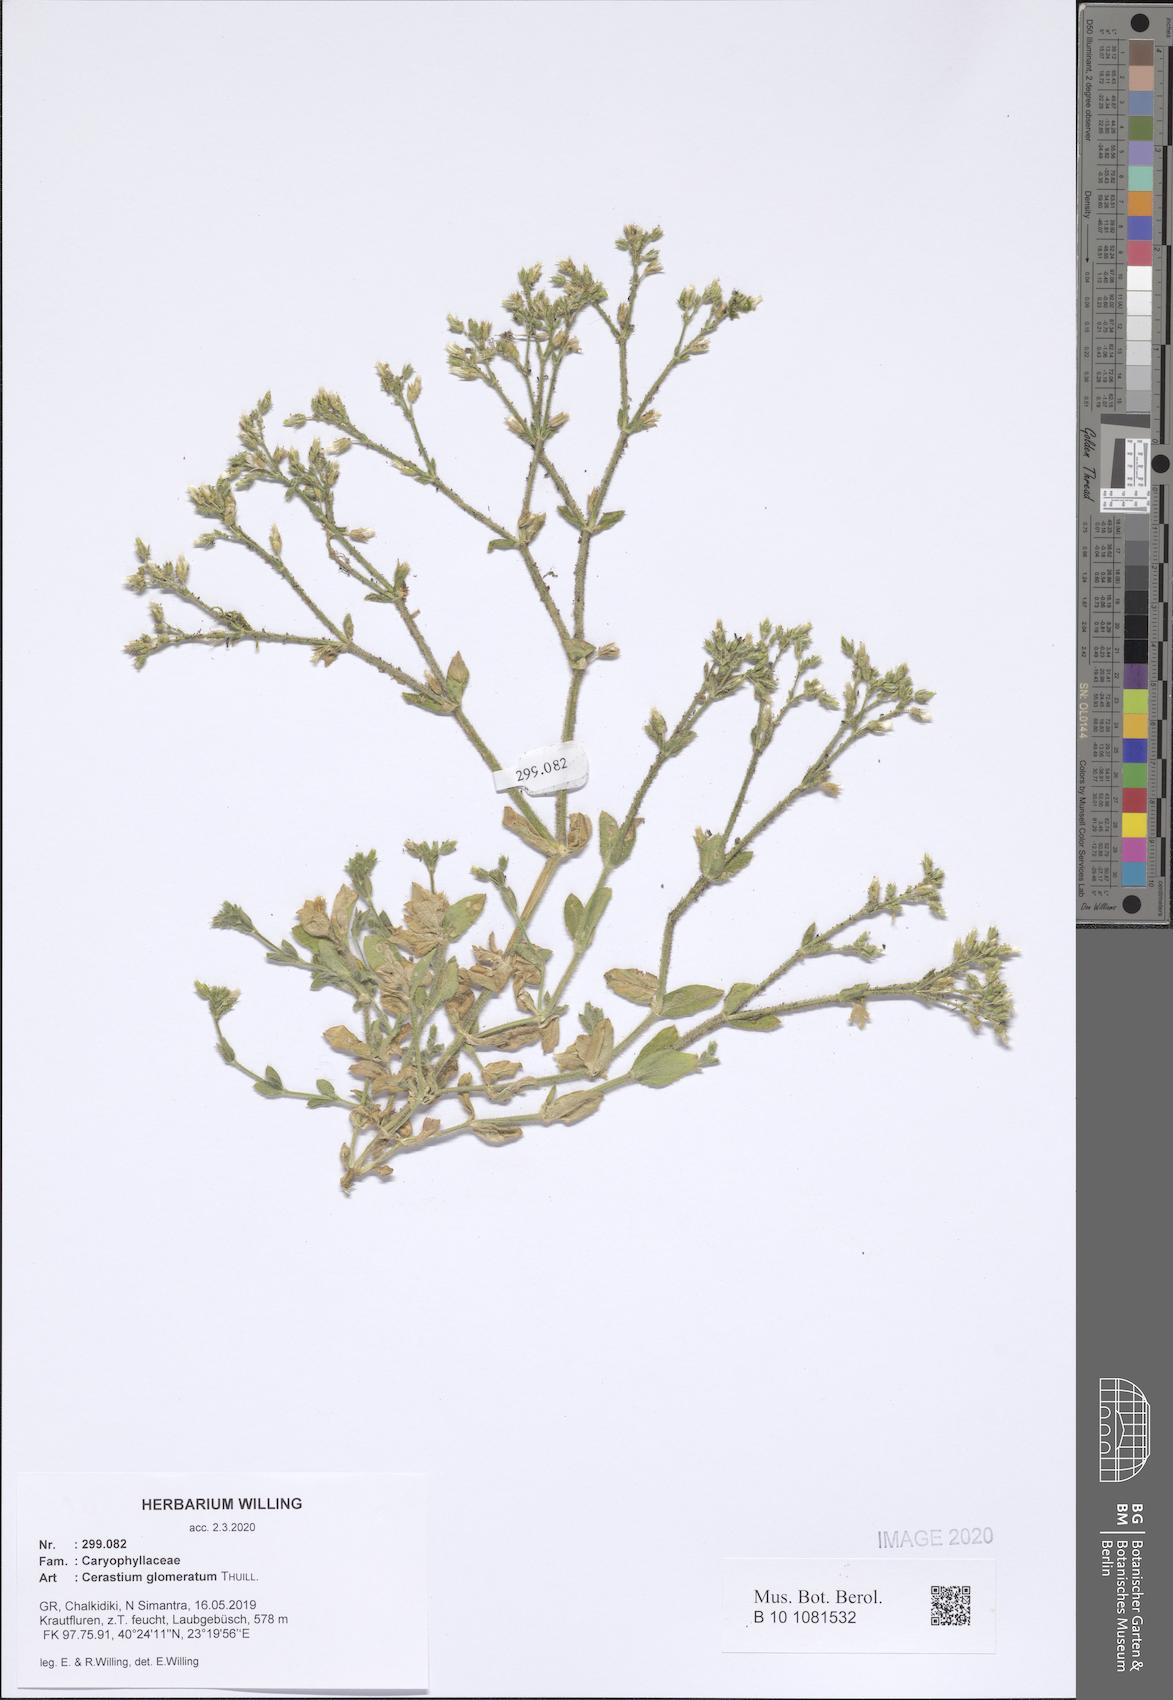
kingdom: Plantae
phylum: Tracheophyta
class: Magnoliopsida
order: Caryophyllales
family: Caryophyllaceae
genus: Cerastium
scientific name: Cerastium glomeratum
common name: Sticky chickweed
